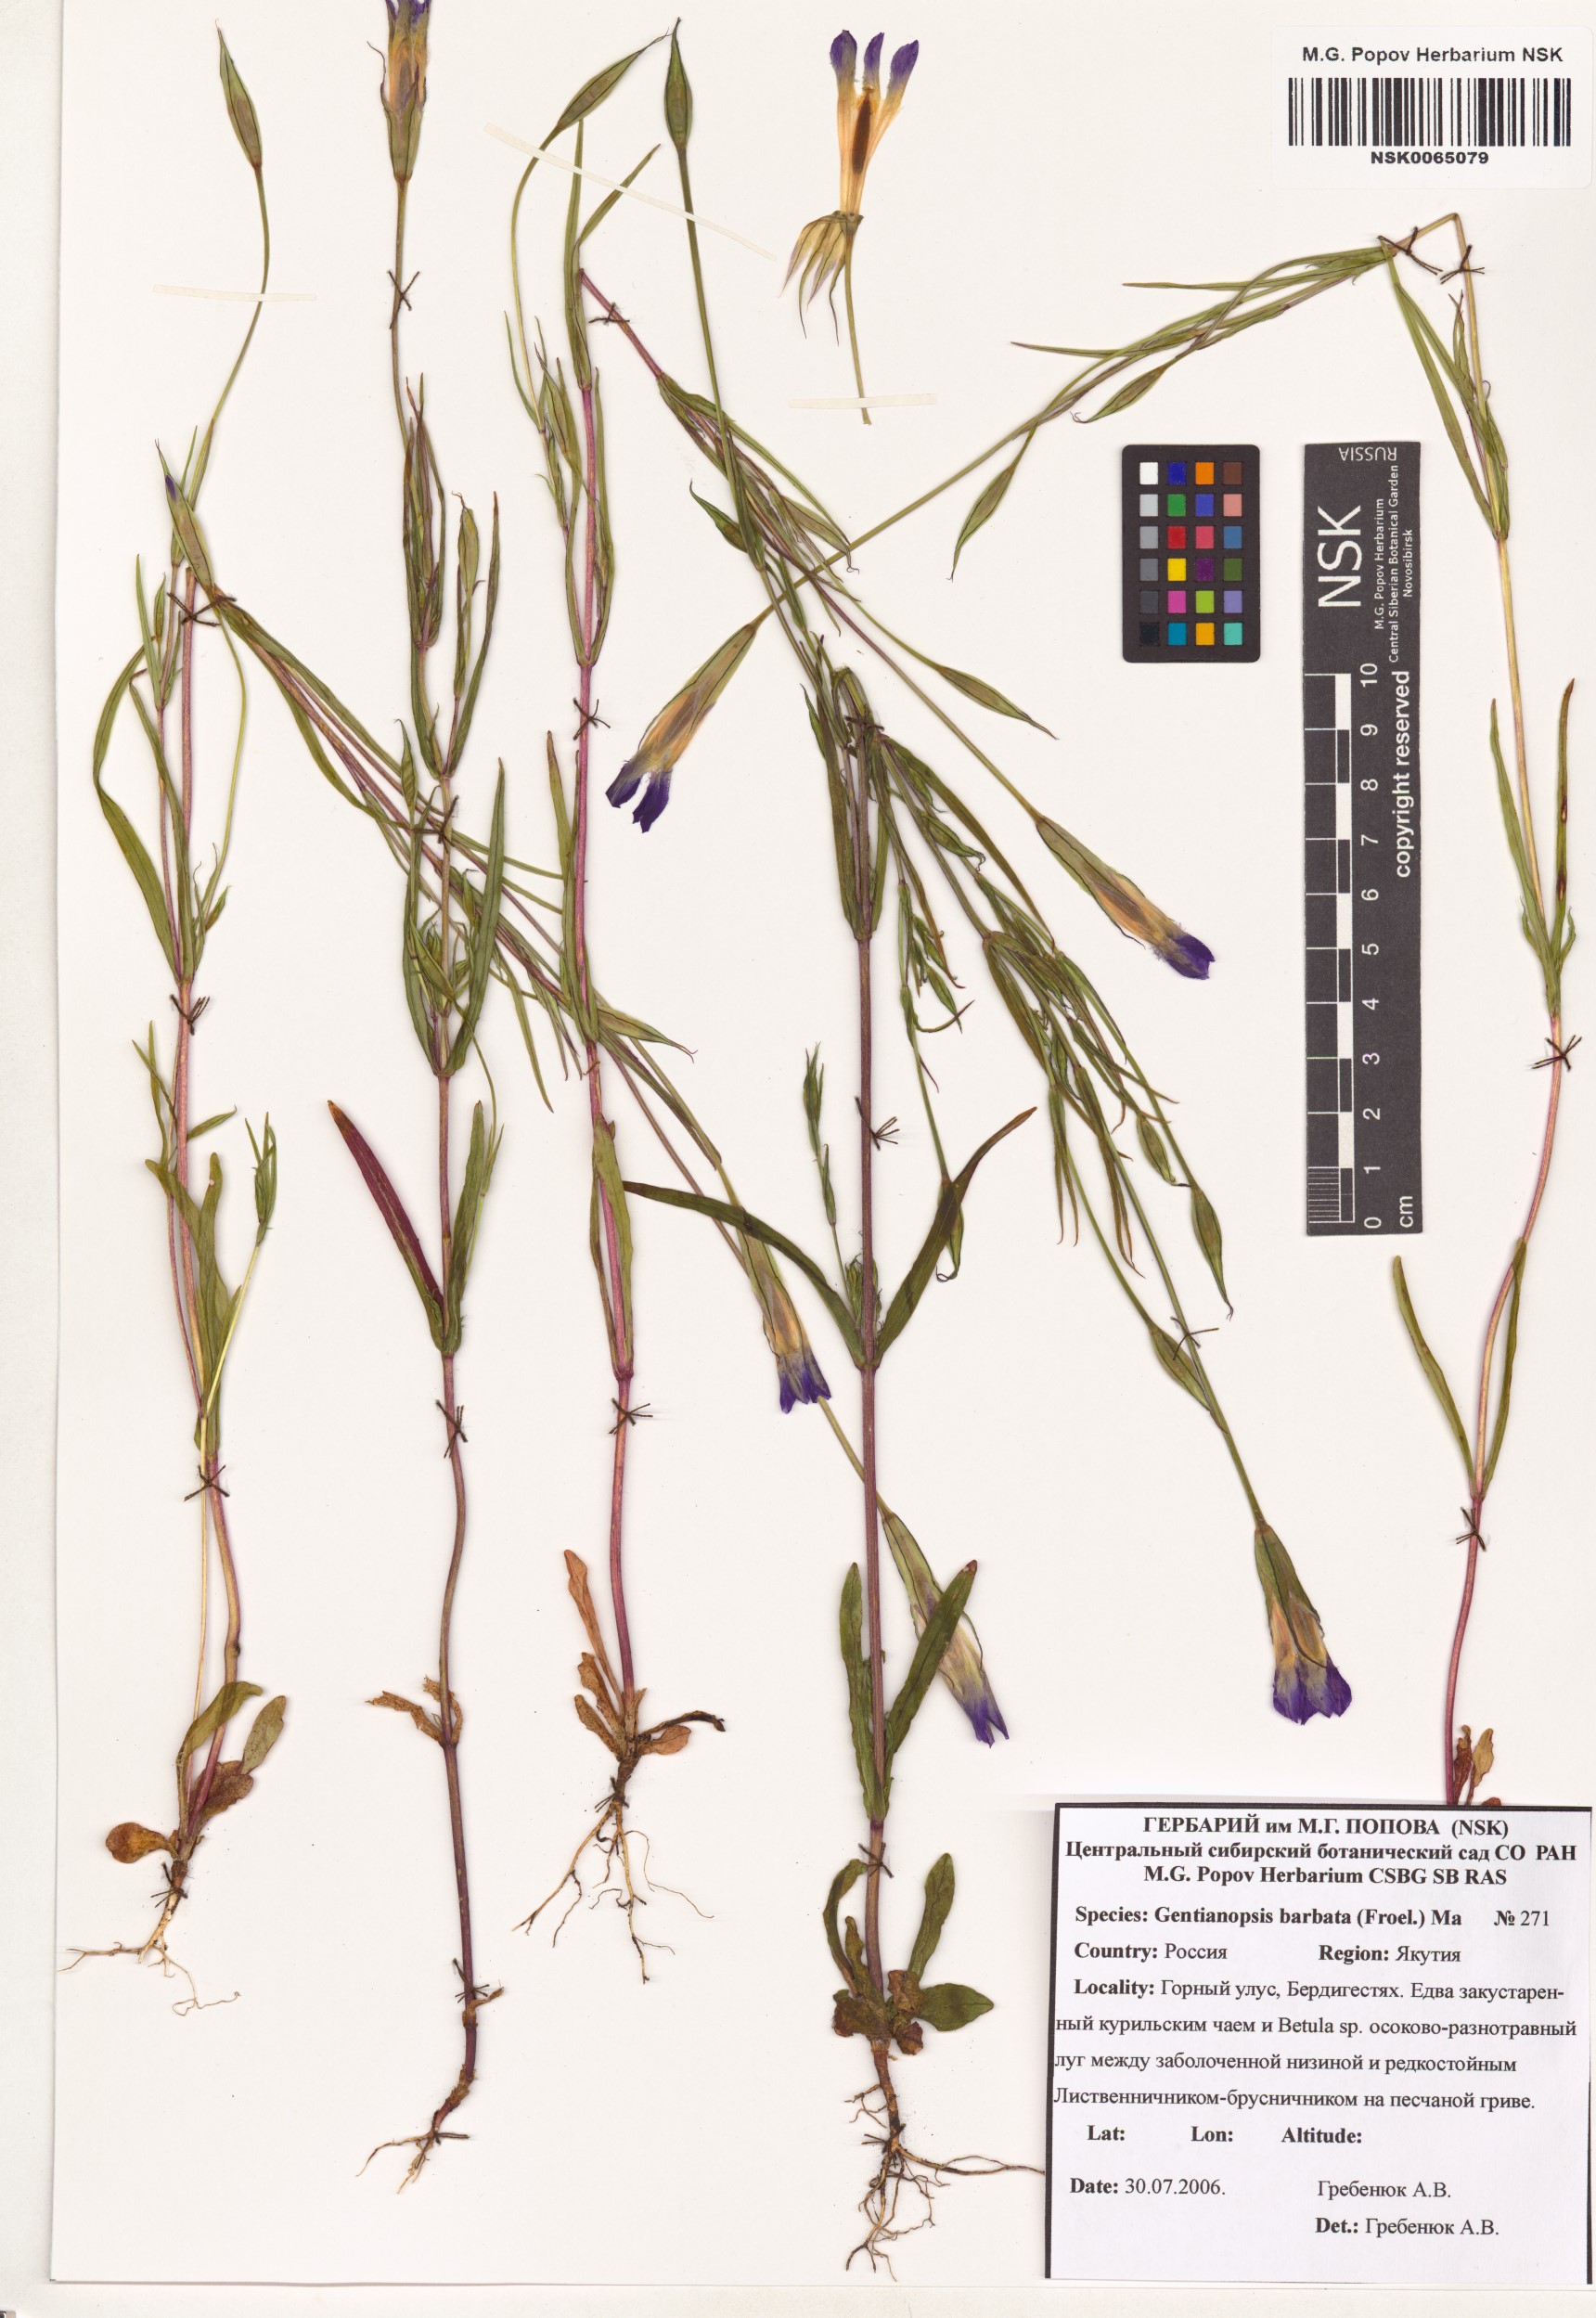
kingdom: Plantae
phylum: Tracheophyta
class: Magnoliopsida
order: Gentianales
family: Gentianaceae
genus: Gentianopsis
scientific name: Gentianopsis barbata
